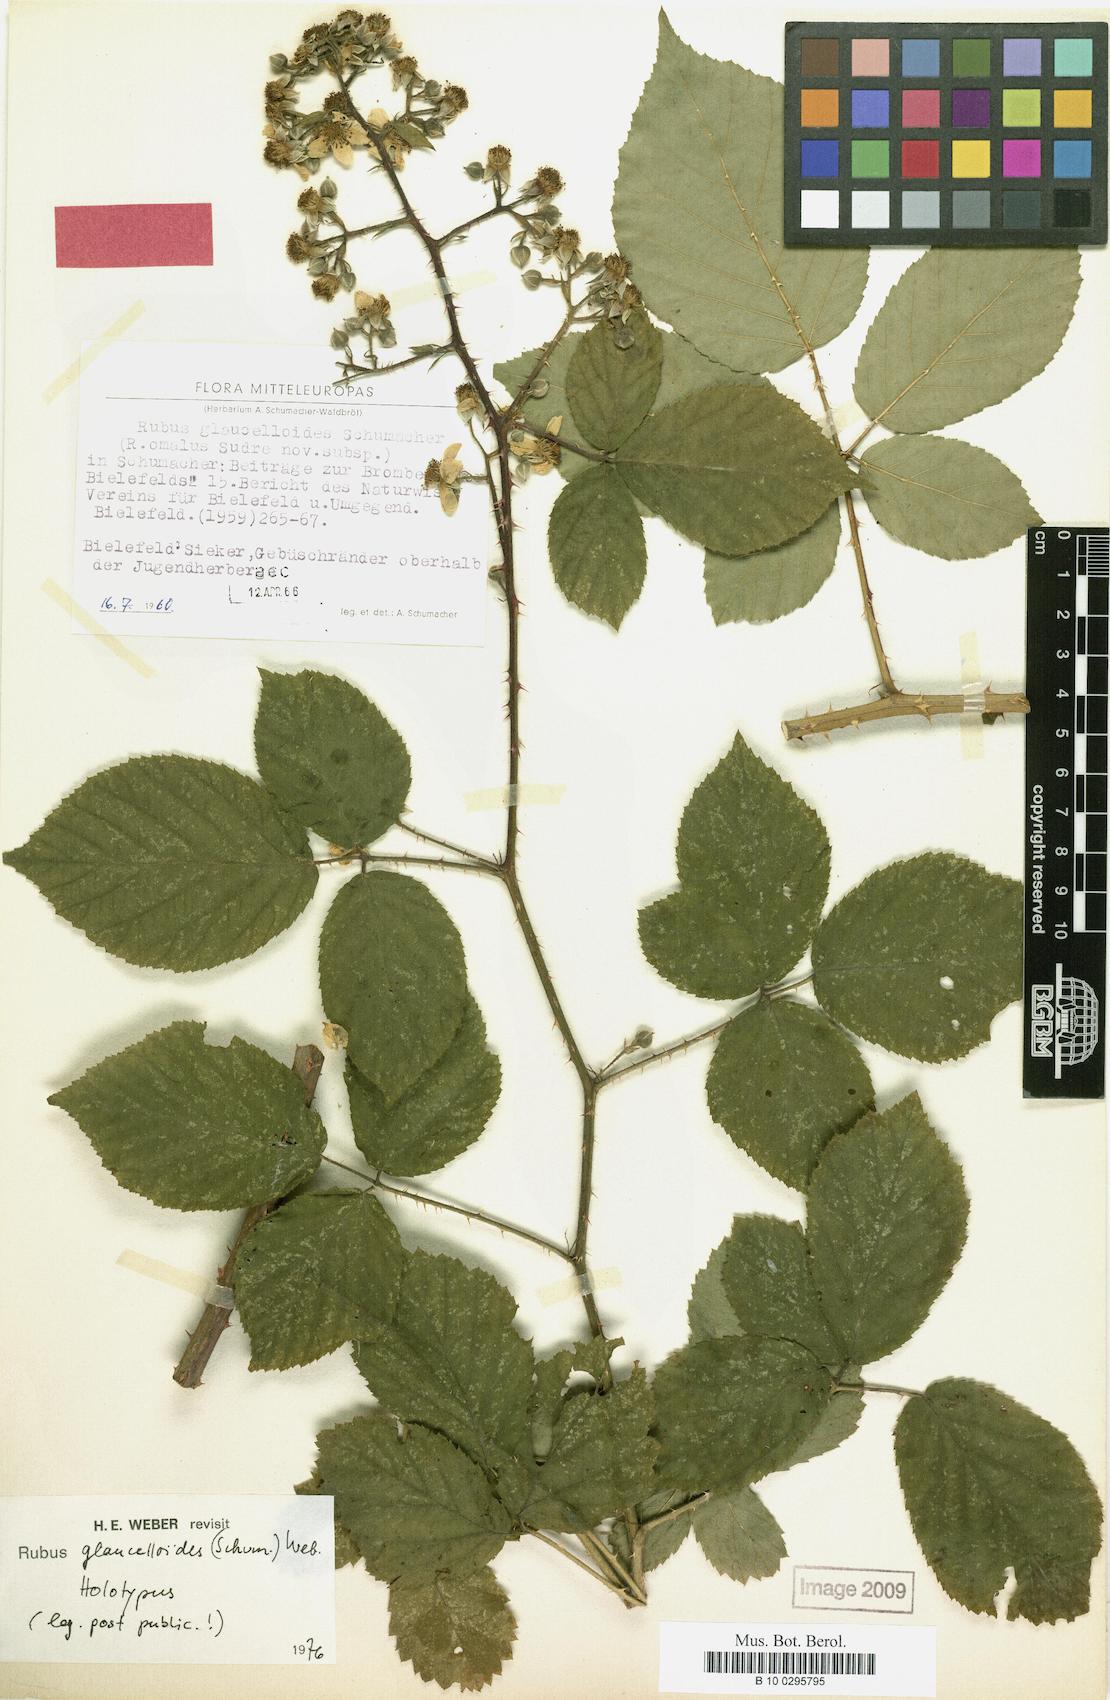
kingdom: Plantae
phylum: Tracheophyta
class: Magnoliopsida
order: Rosales
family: Rosaceae
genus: Rubus
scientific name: Rubus
